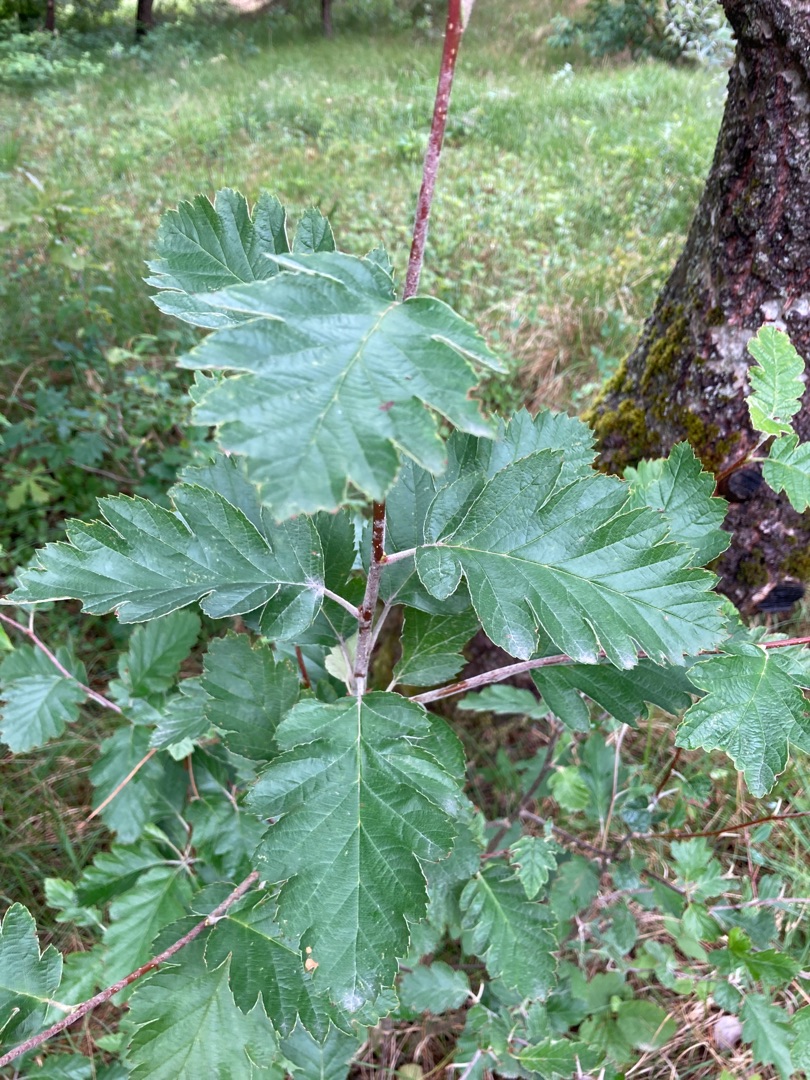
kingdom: Plantae
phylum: Tracheophyta
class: Magnoliopsida
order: Rosales
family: Rosaceae
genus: Scandosorbus
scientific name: Scandosorbus intermedia
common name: Selje-røn
